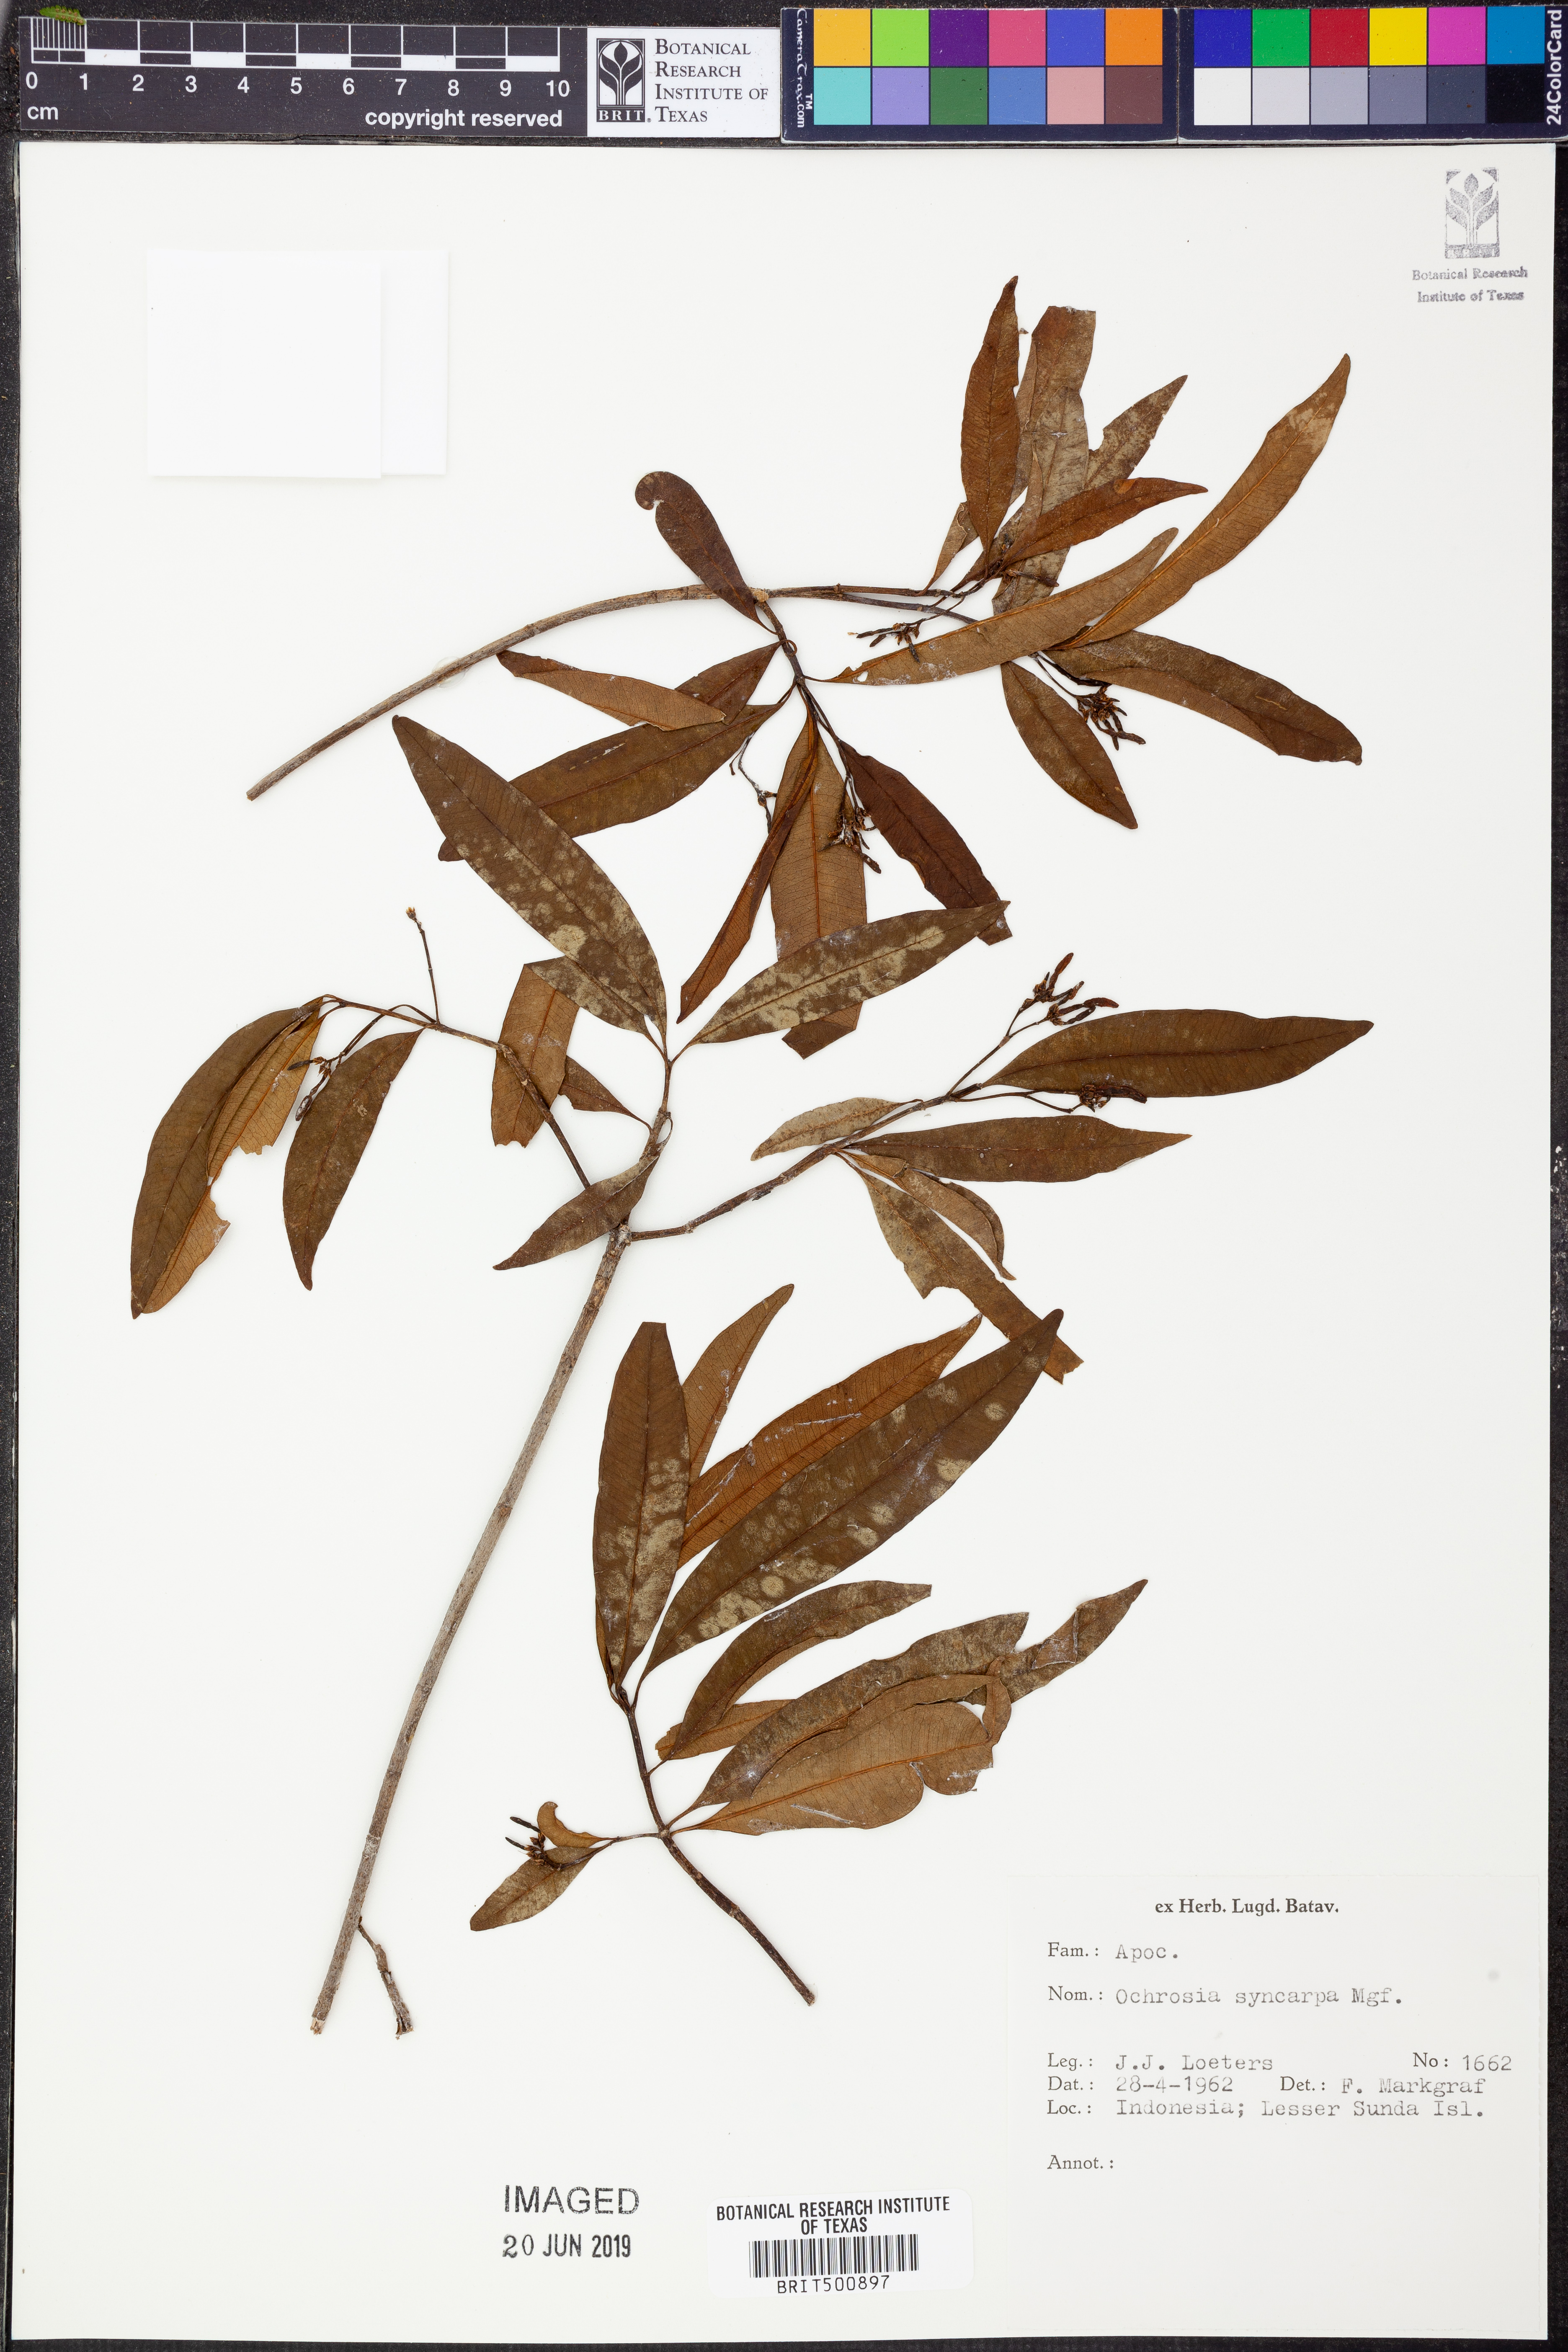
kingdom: Plantae
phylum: Tracheophyta
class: Magnoliopsida
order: Gentianales
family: Apocynaceae
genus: Ochrosia
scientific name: Ochrosia syncarpa
